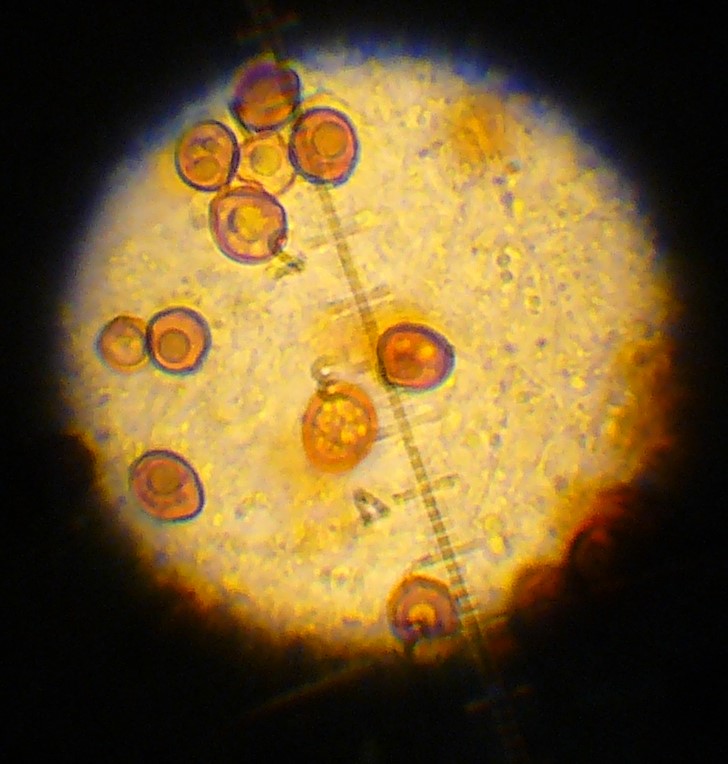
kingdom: Fungi
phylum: Basidiomycota
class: Agaricomycetes
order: Agaricales
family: Psathyrellaceae
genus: Coprinopsis
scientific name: Coprinopsis pseudofriesii
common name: gulfnugget blækhat
